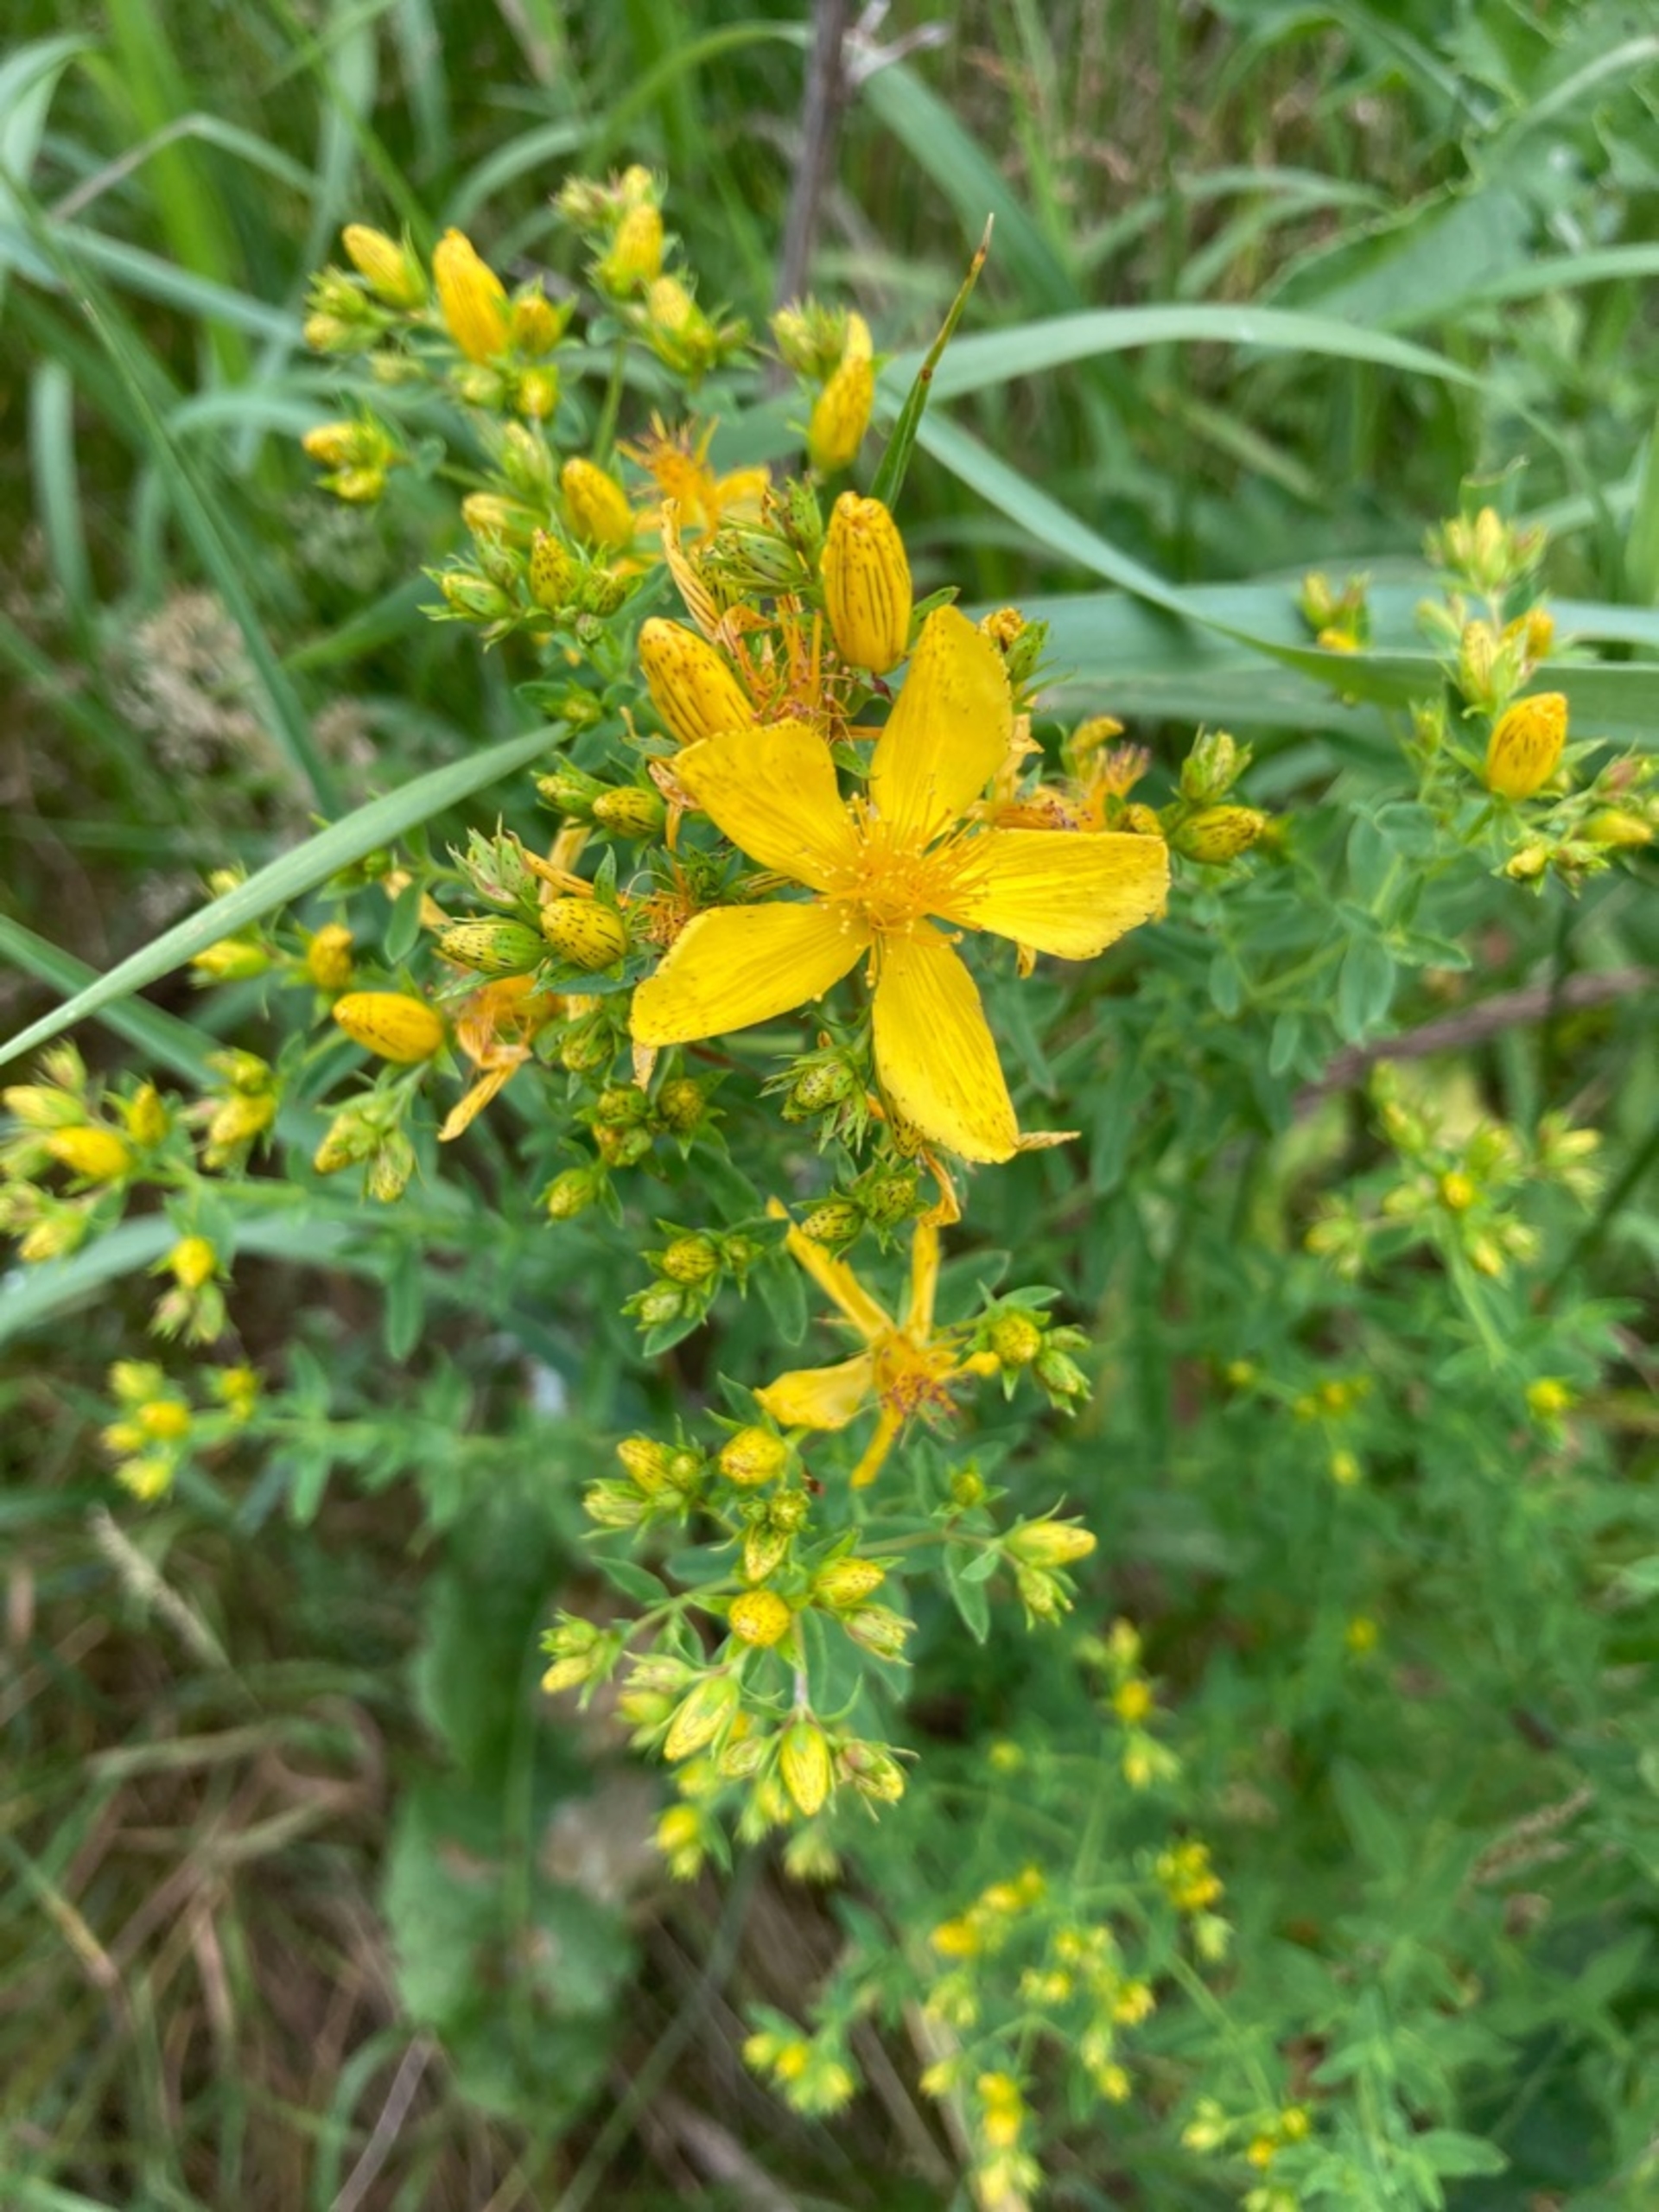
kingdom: Plantae
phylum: Tracheophyta
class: Magnoliopsida
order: Malpighiales
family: Hypericaceae
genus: Hypericum
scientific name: Hypericum perforatum
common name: Prikbladet perikon
